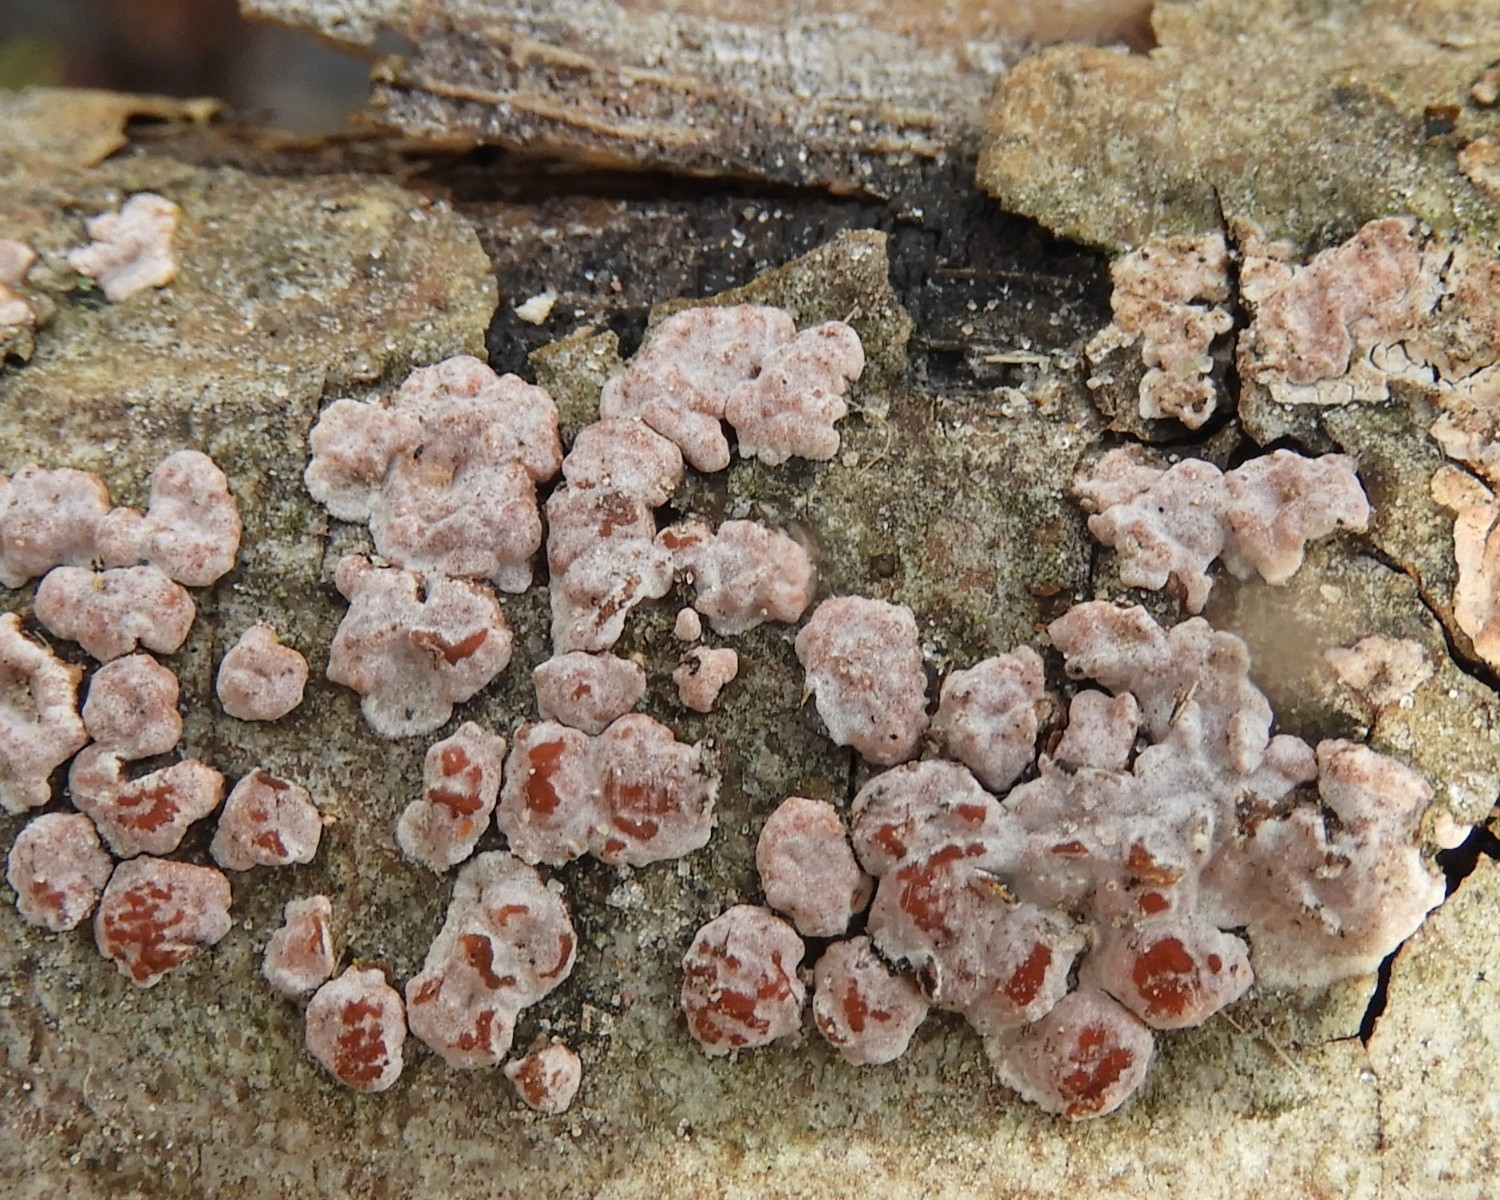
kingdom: Fungi
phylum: Basidiomycota
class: Agaricomycetes
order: Russulales
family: Peniophoraceae
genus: Peniophora
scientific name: Peniophora polygonia
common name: polygon-voksskind
